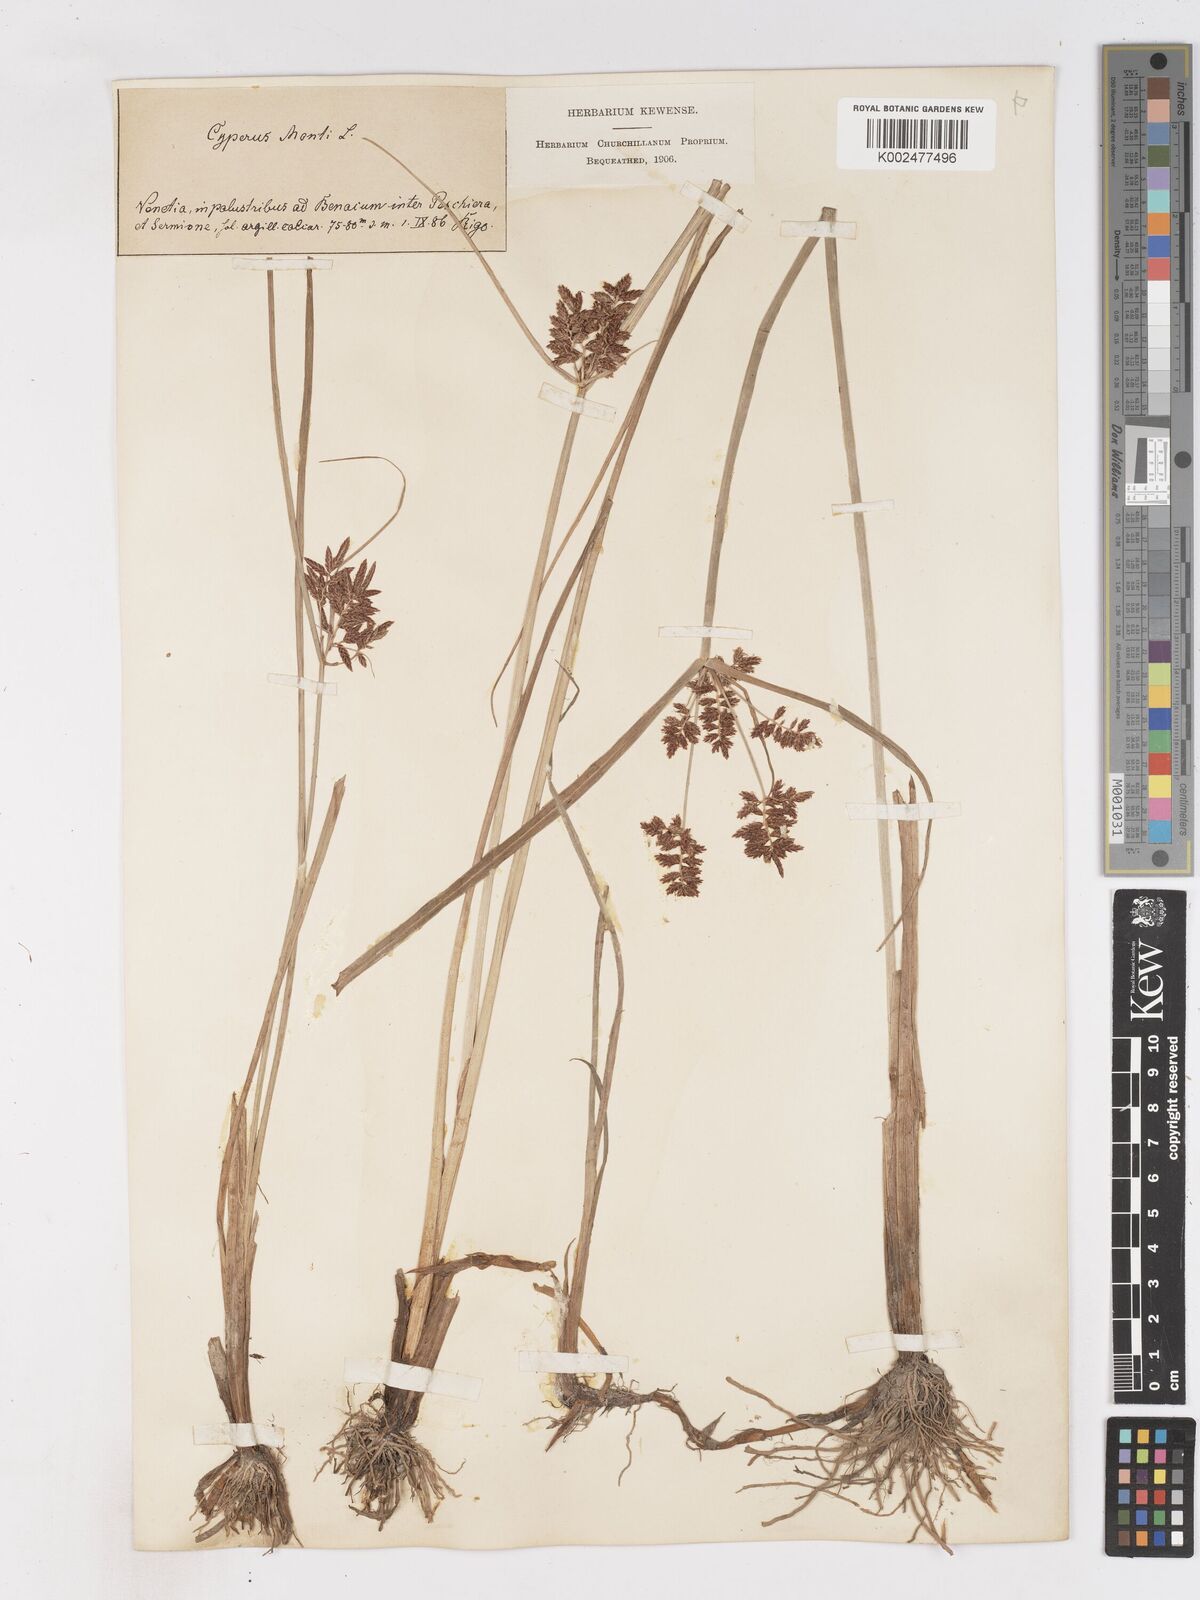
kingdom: Plantae
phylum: Tracheophyta
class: Liliopsida
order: Poales
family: Cyperaceae
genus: Cyperus
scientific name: Cyperus serotinus
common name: Tidalmarsh flatsedge
